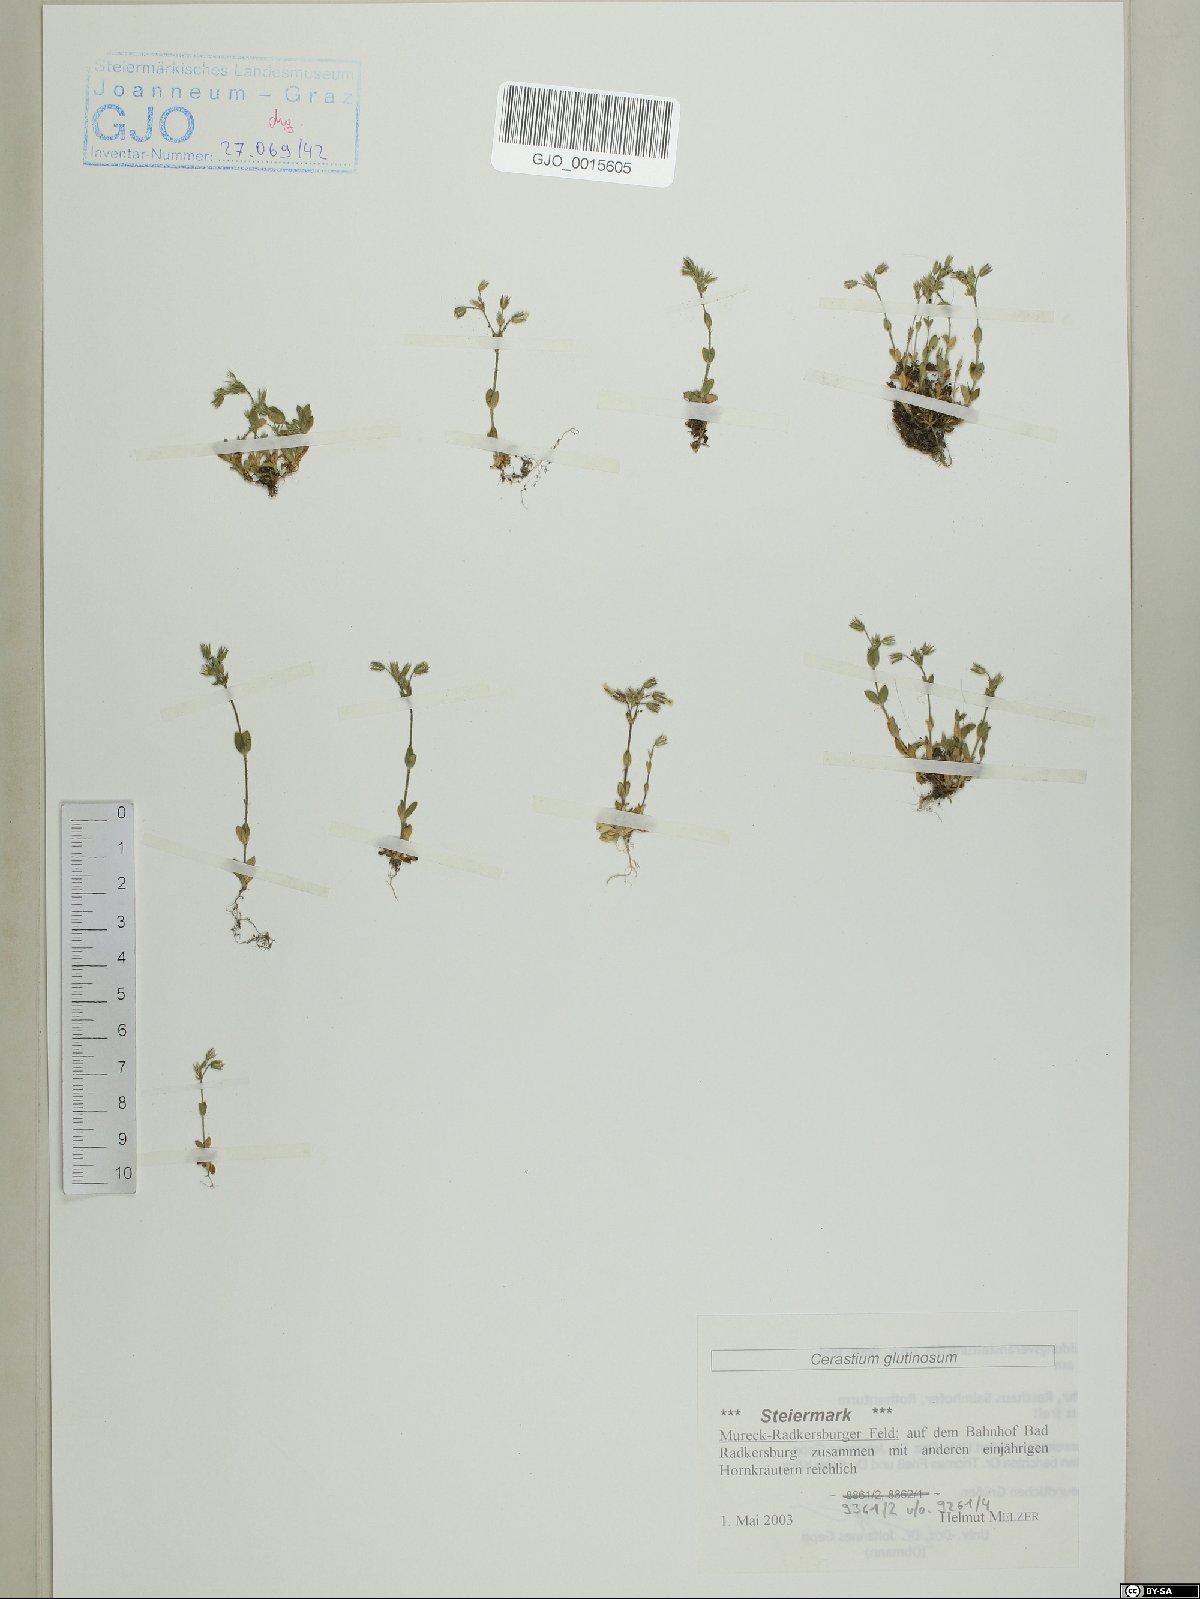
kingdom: Plantae
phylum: Tracheophyta
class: Magnoliopsida
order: Caryophyllales
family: Caryophyllaceae
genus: Cerastium
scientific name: Cerastium glutinosum
